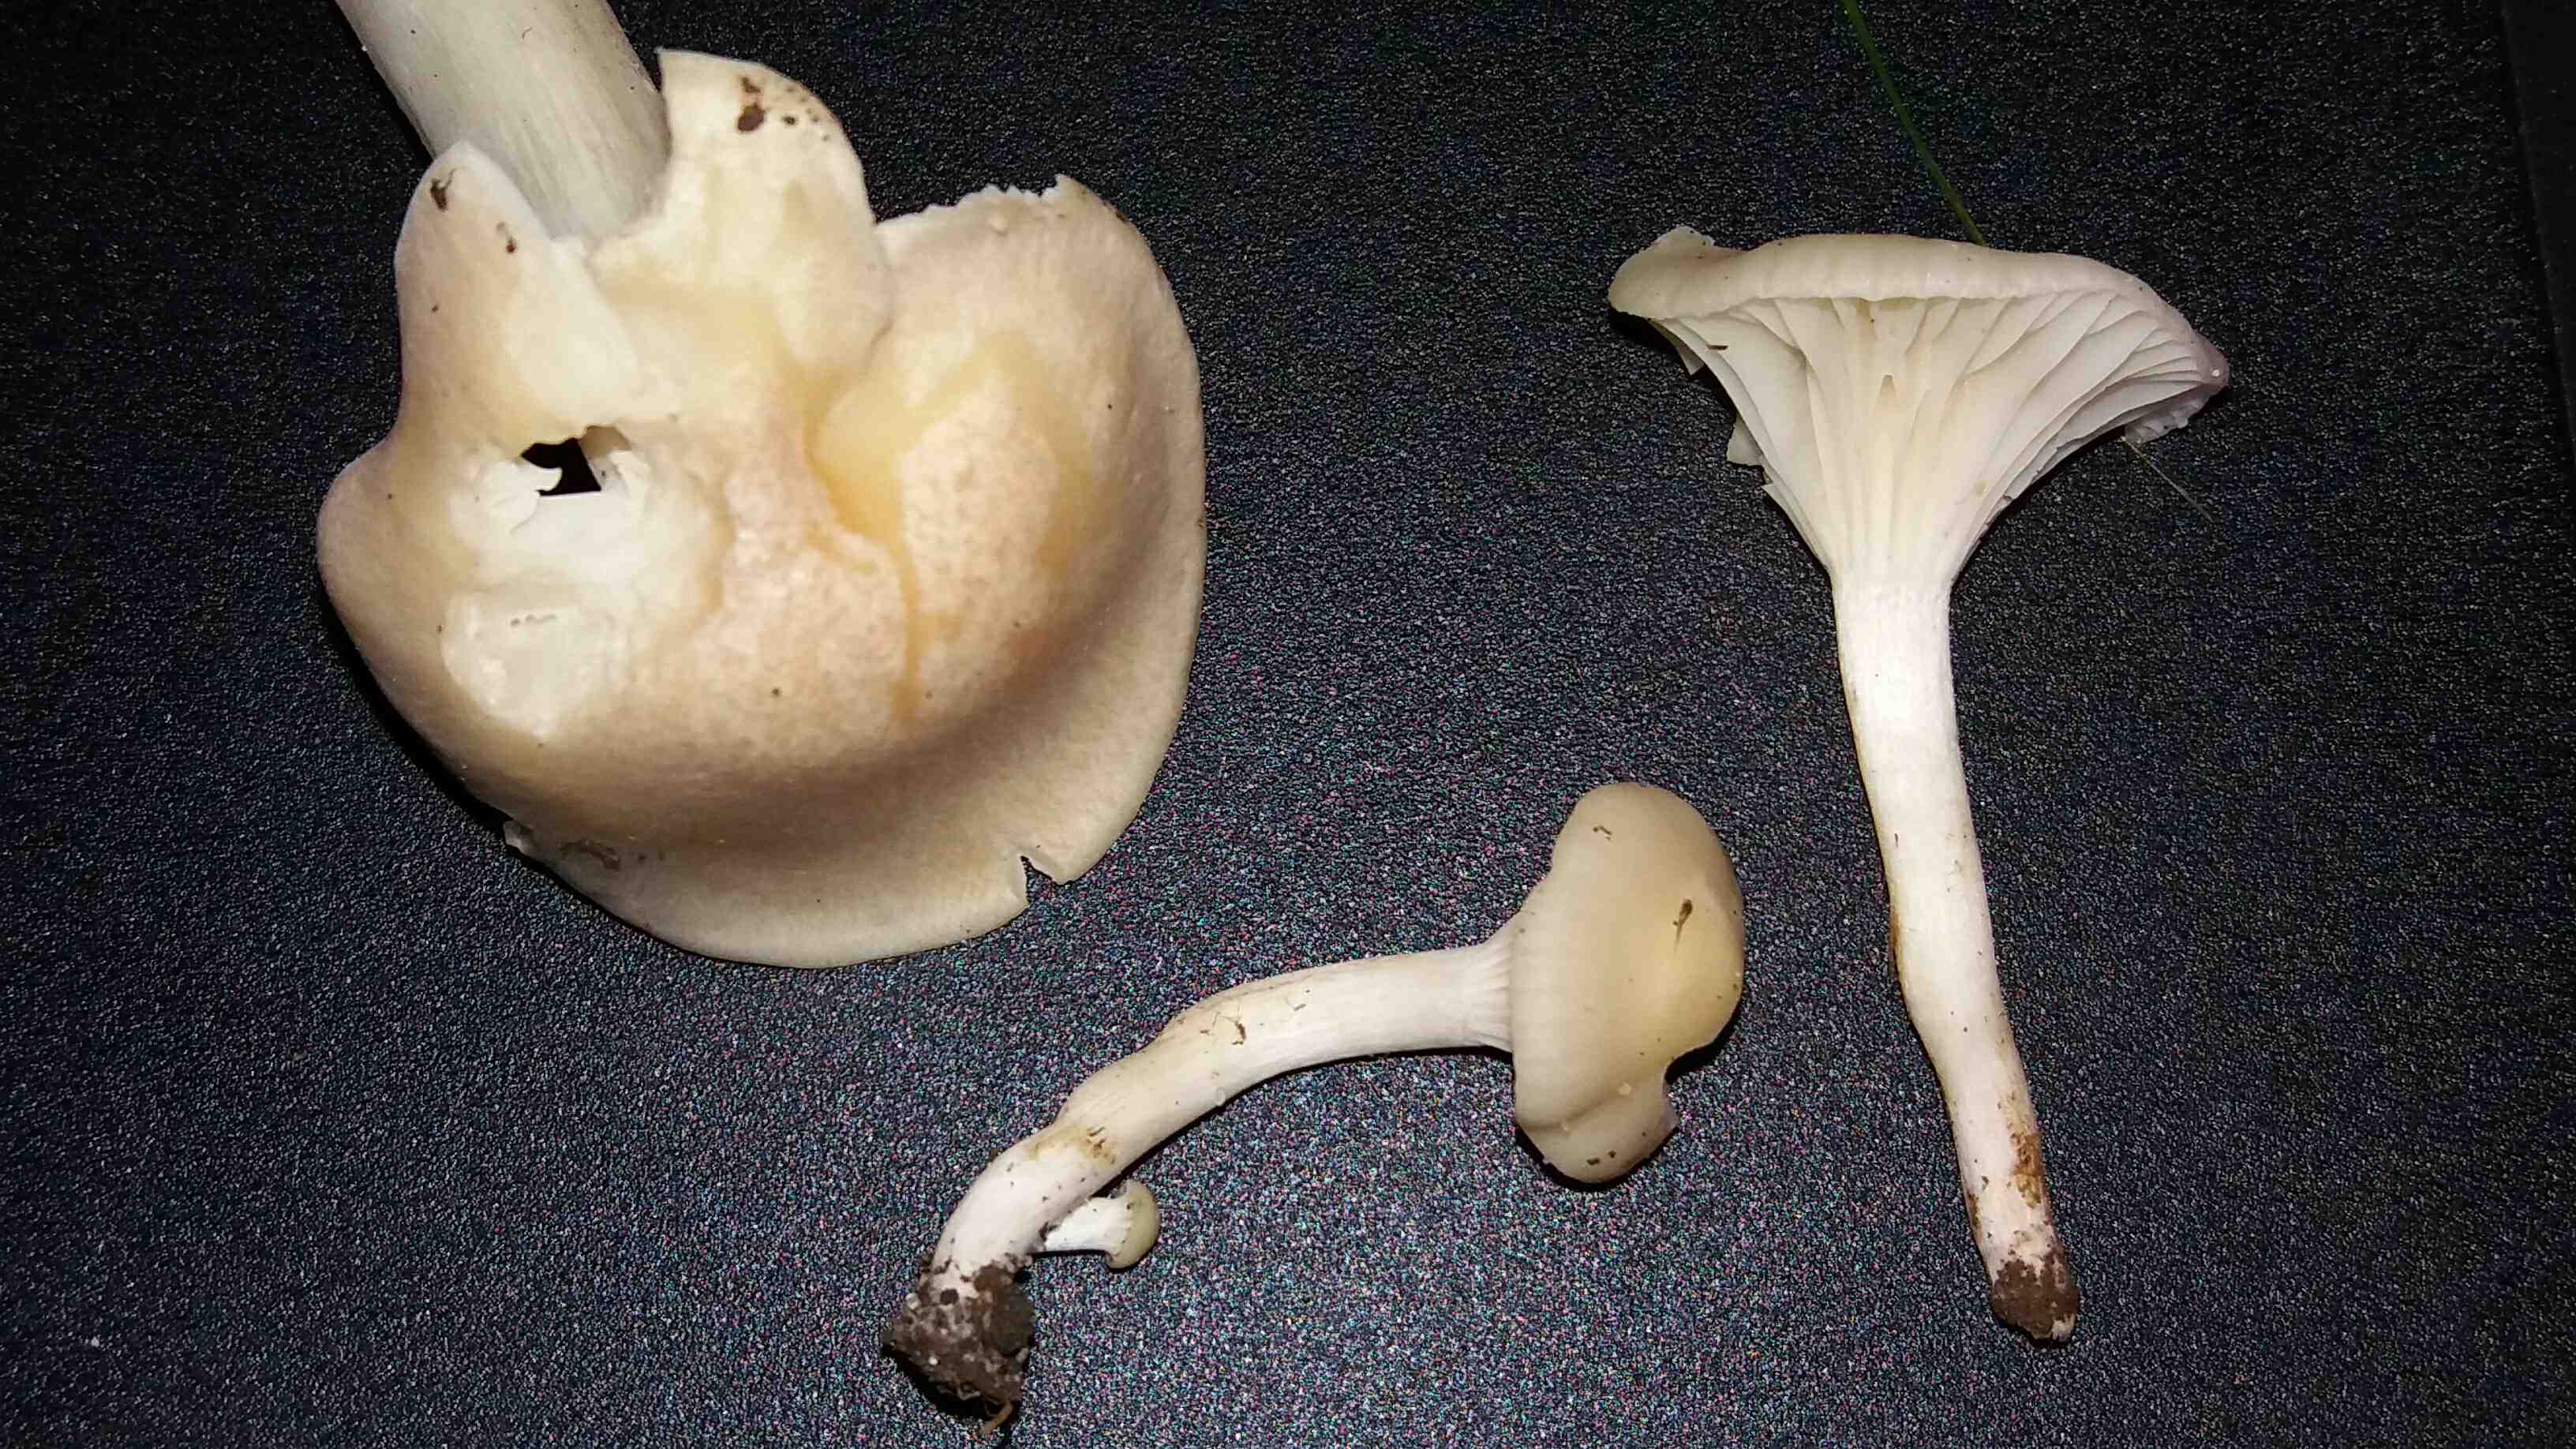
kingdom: Fungi
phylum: Basidiomycota
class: Agaricomycetes
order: Agaricales
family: Hygrophoraceae
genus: Cuphophyllus
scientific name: Cuphophyllus
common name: vokshat
